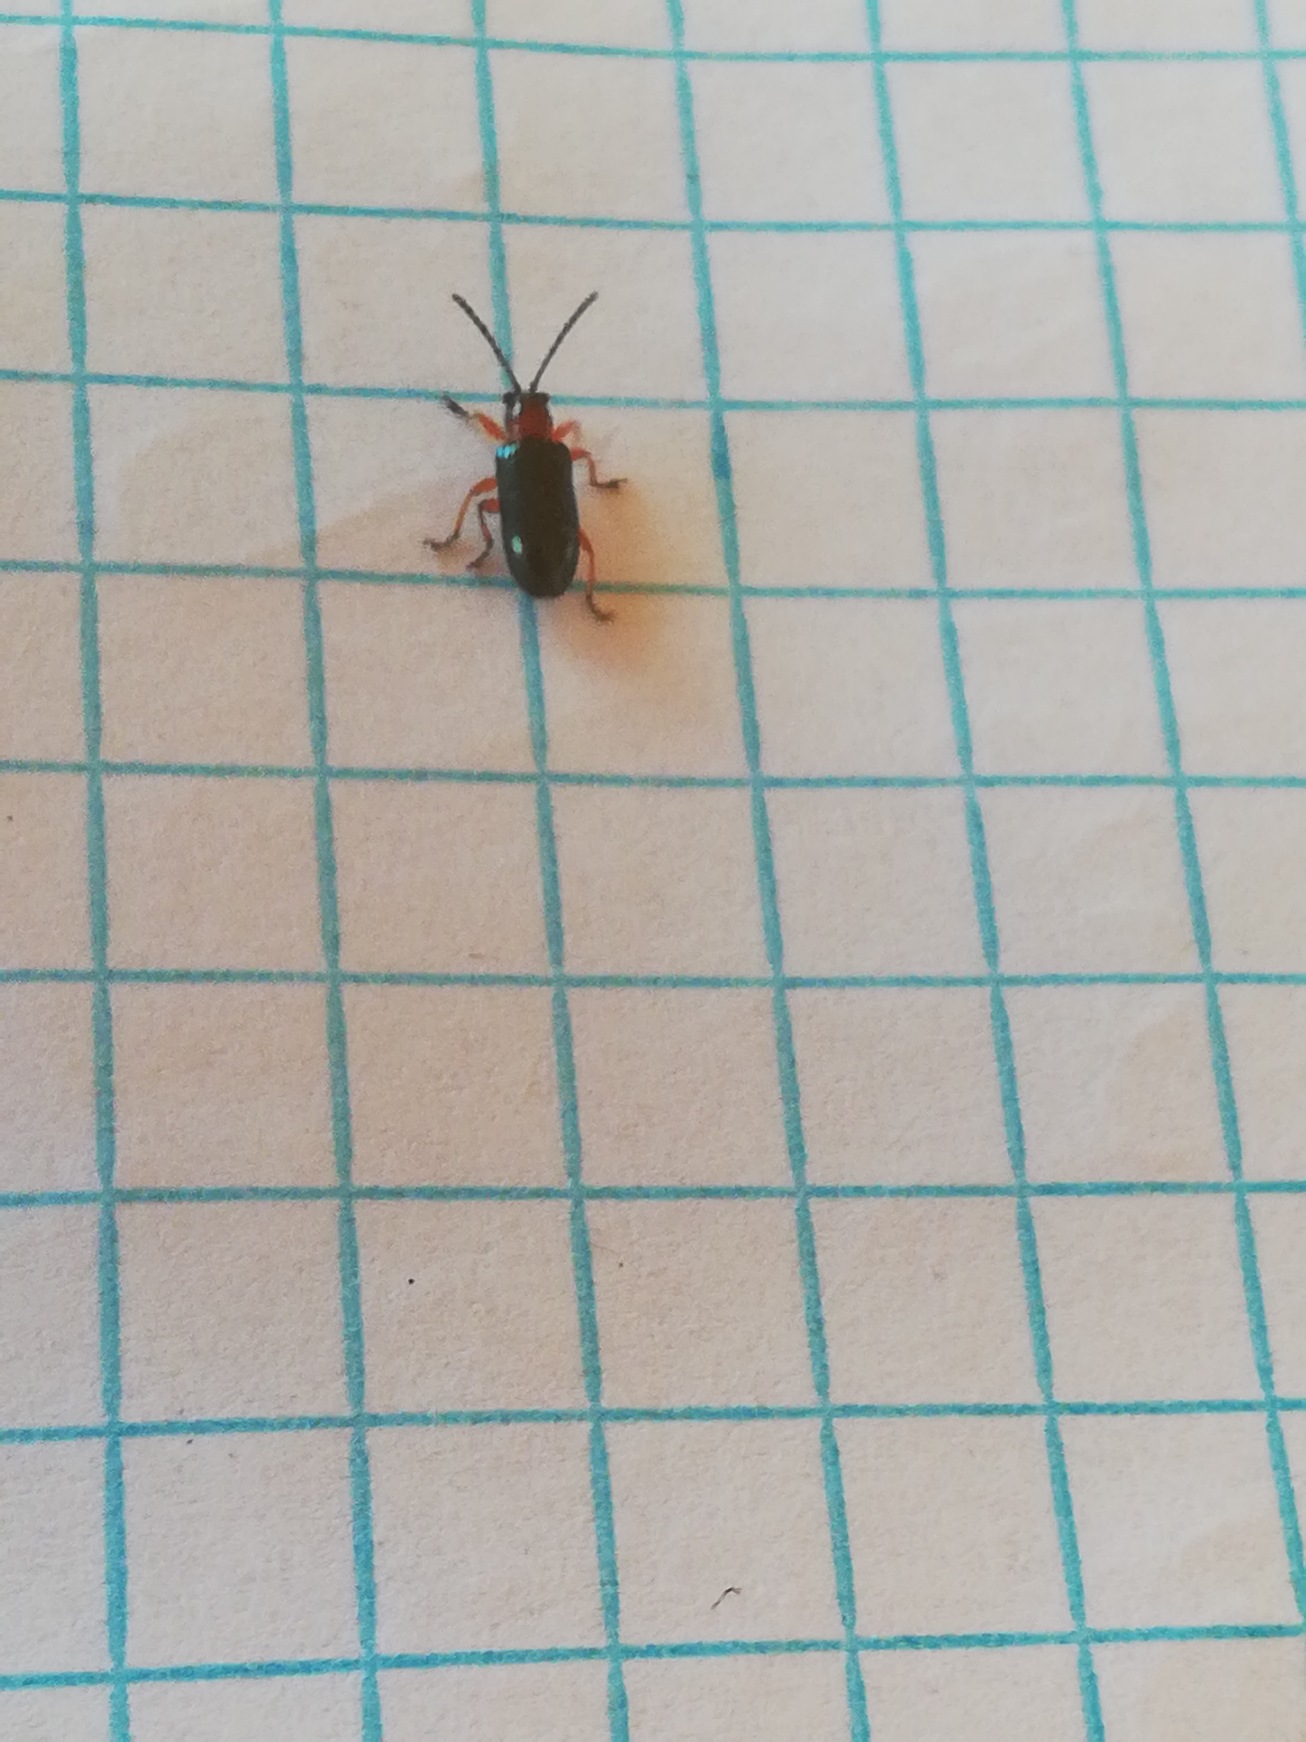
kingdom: Animalia
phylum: Arthropoda
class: Insecta
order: Coleoptera
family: Chrysomelidae
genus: Oulema
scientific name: Oulema
